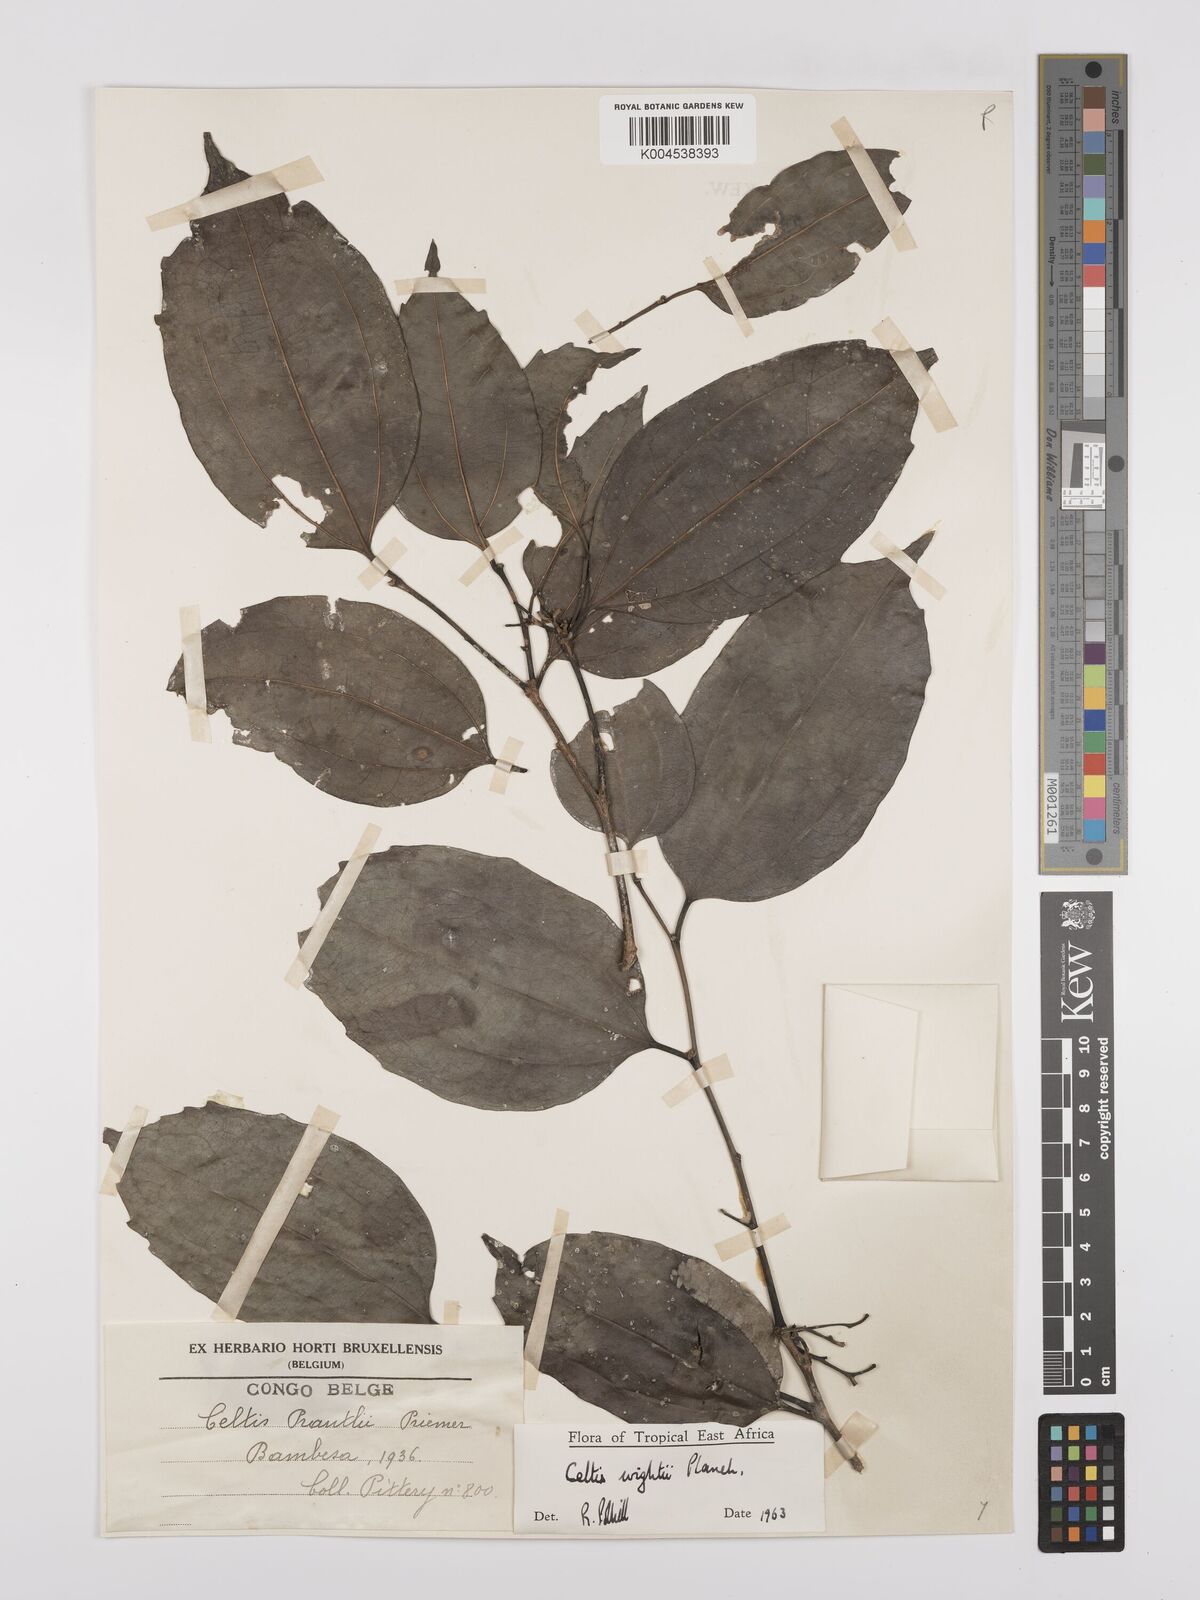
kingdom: Plantae
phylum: Tracheophyta
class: Magnoliopsida
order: Rosales
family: Cannabaceae
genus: Celtis
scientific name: Celtis philippensis
